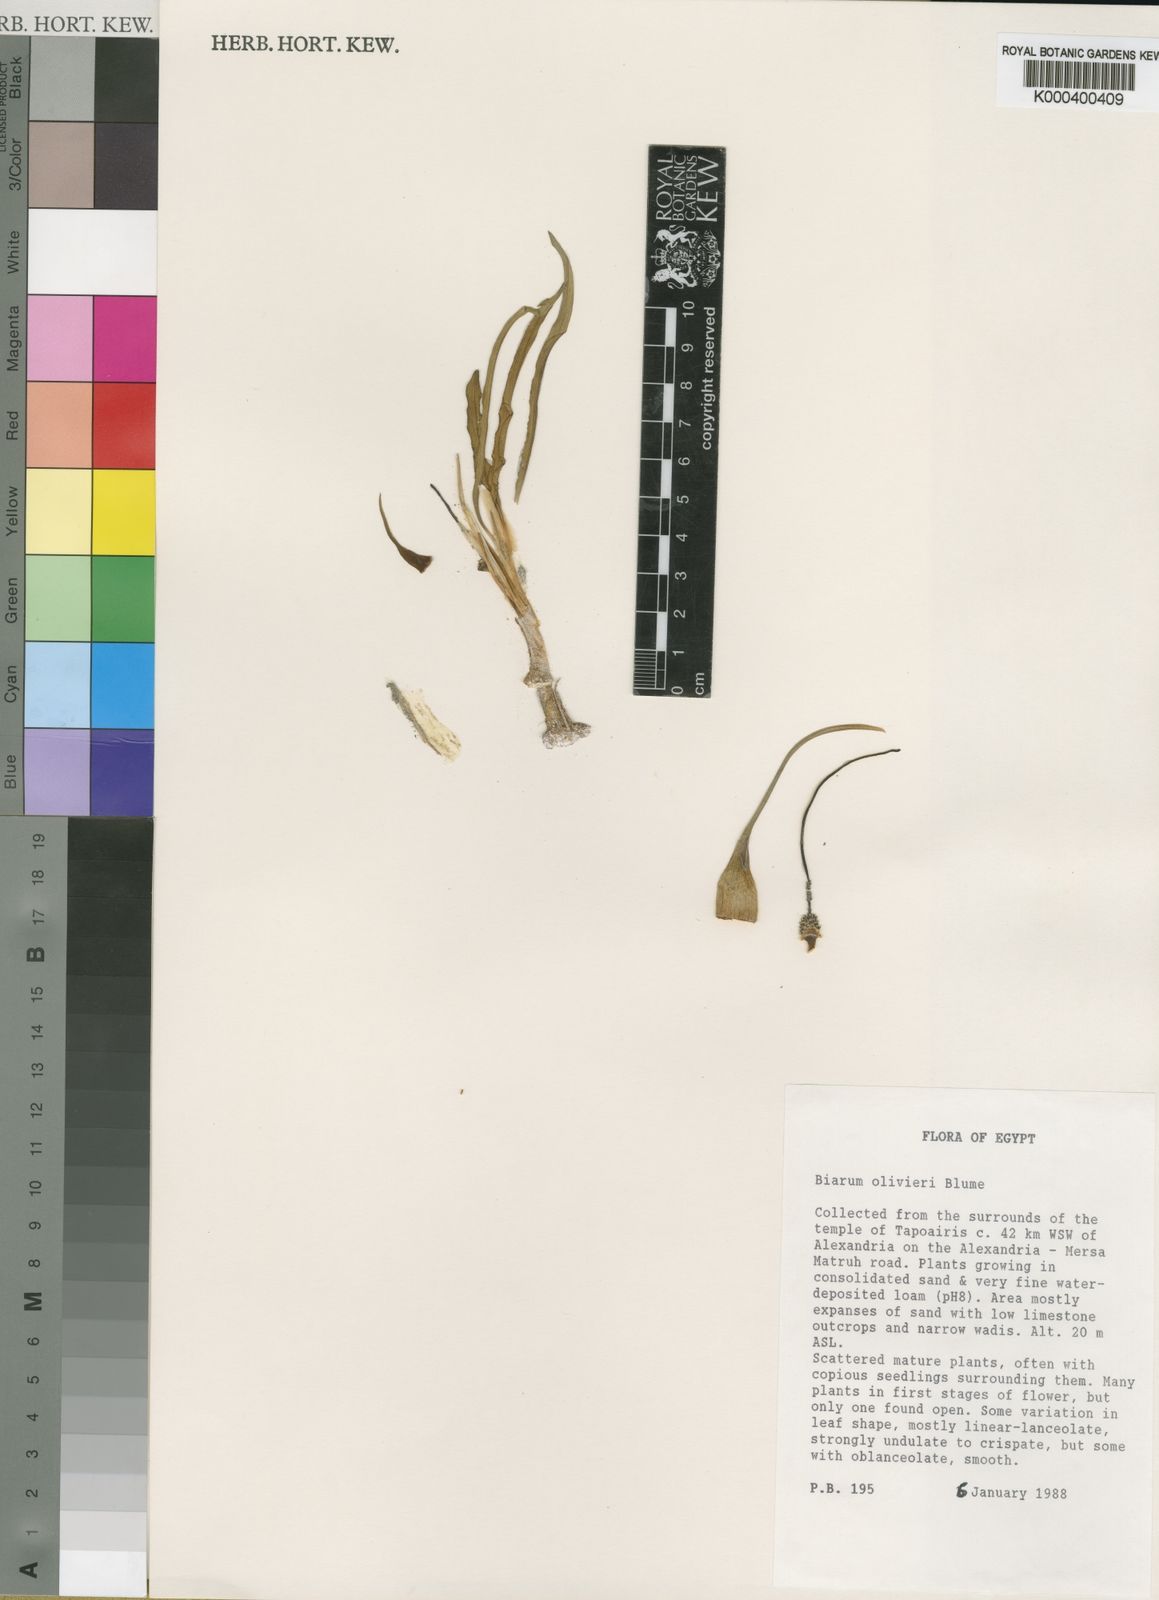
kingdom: Plantae
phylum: Tracheophyta
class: Liliopsida
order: Alismatales
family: Araceae
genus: Biarum
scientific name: Biarum olivieri
